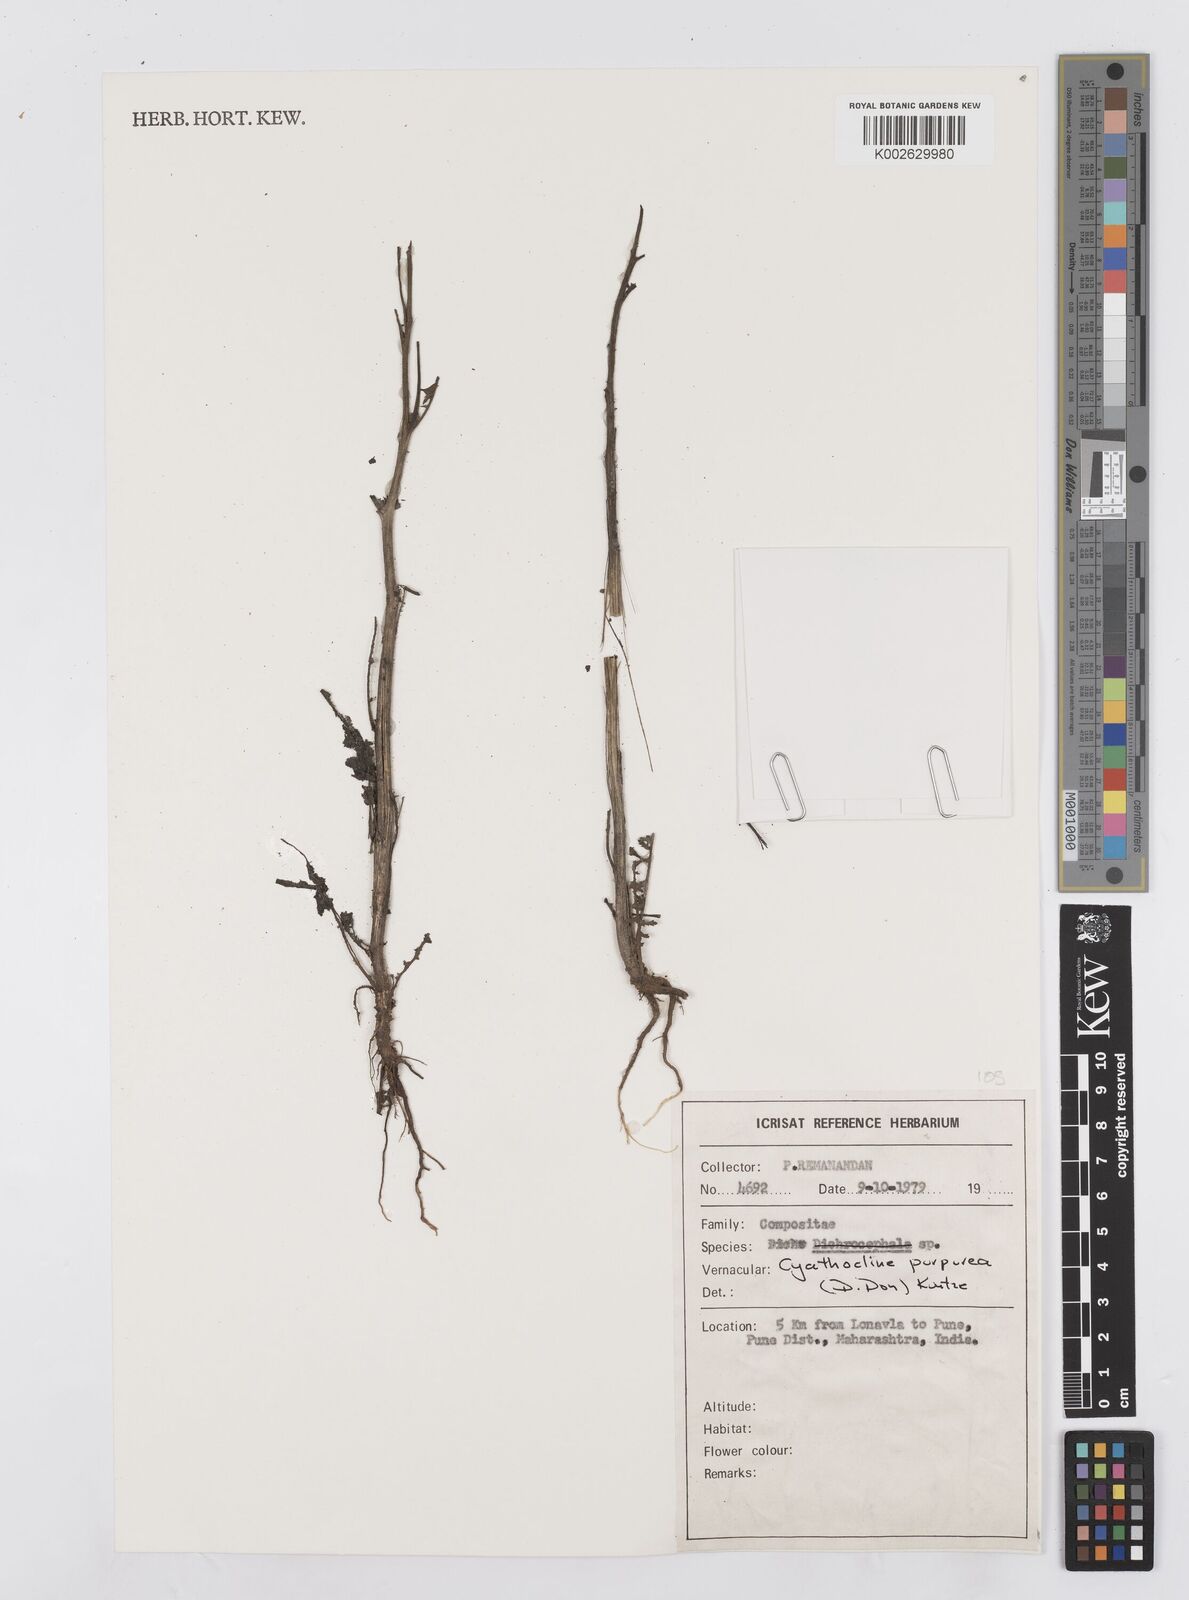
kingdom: Plantae
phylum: Tracheophyta
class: Magnoliopsida
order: Asterales
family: Asteraceae
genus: Cyathocline
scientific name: Cyathocline purpurea
